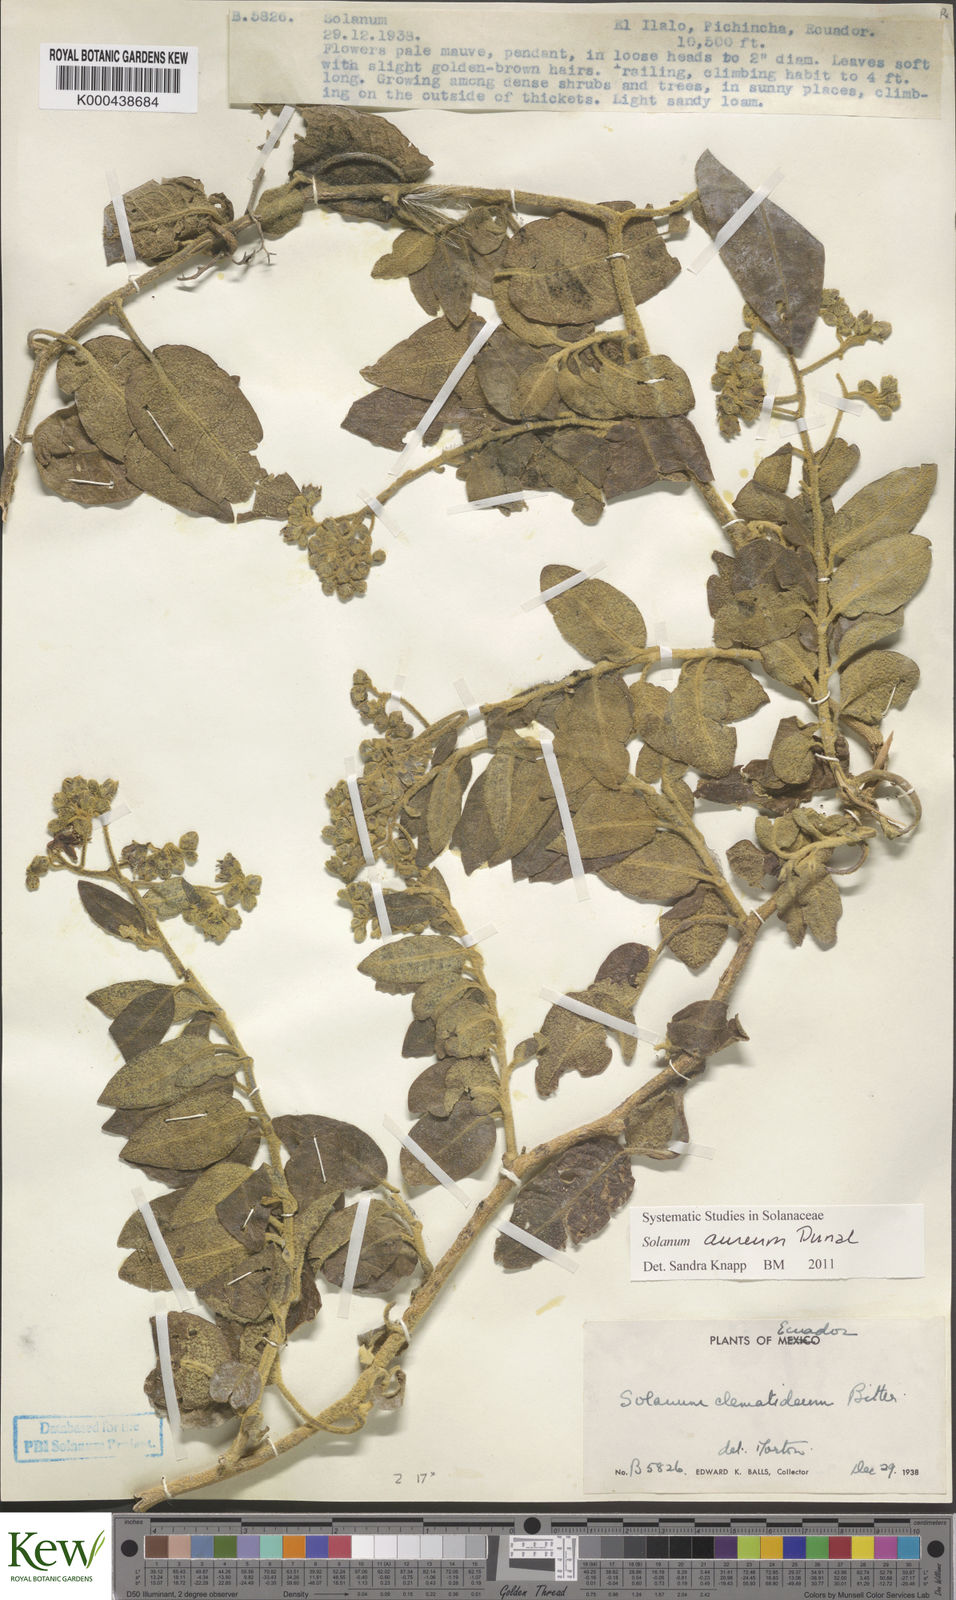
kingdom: Plantae
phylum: Tracheophyta
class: Magnoliopsida
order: Solanales
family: Solanaceae
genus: Solanum
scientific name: Solanum aureum
